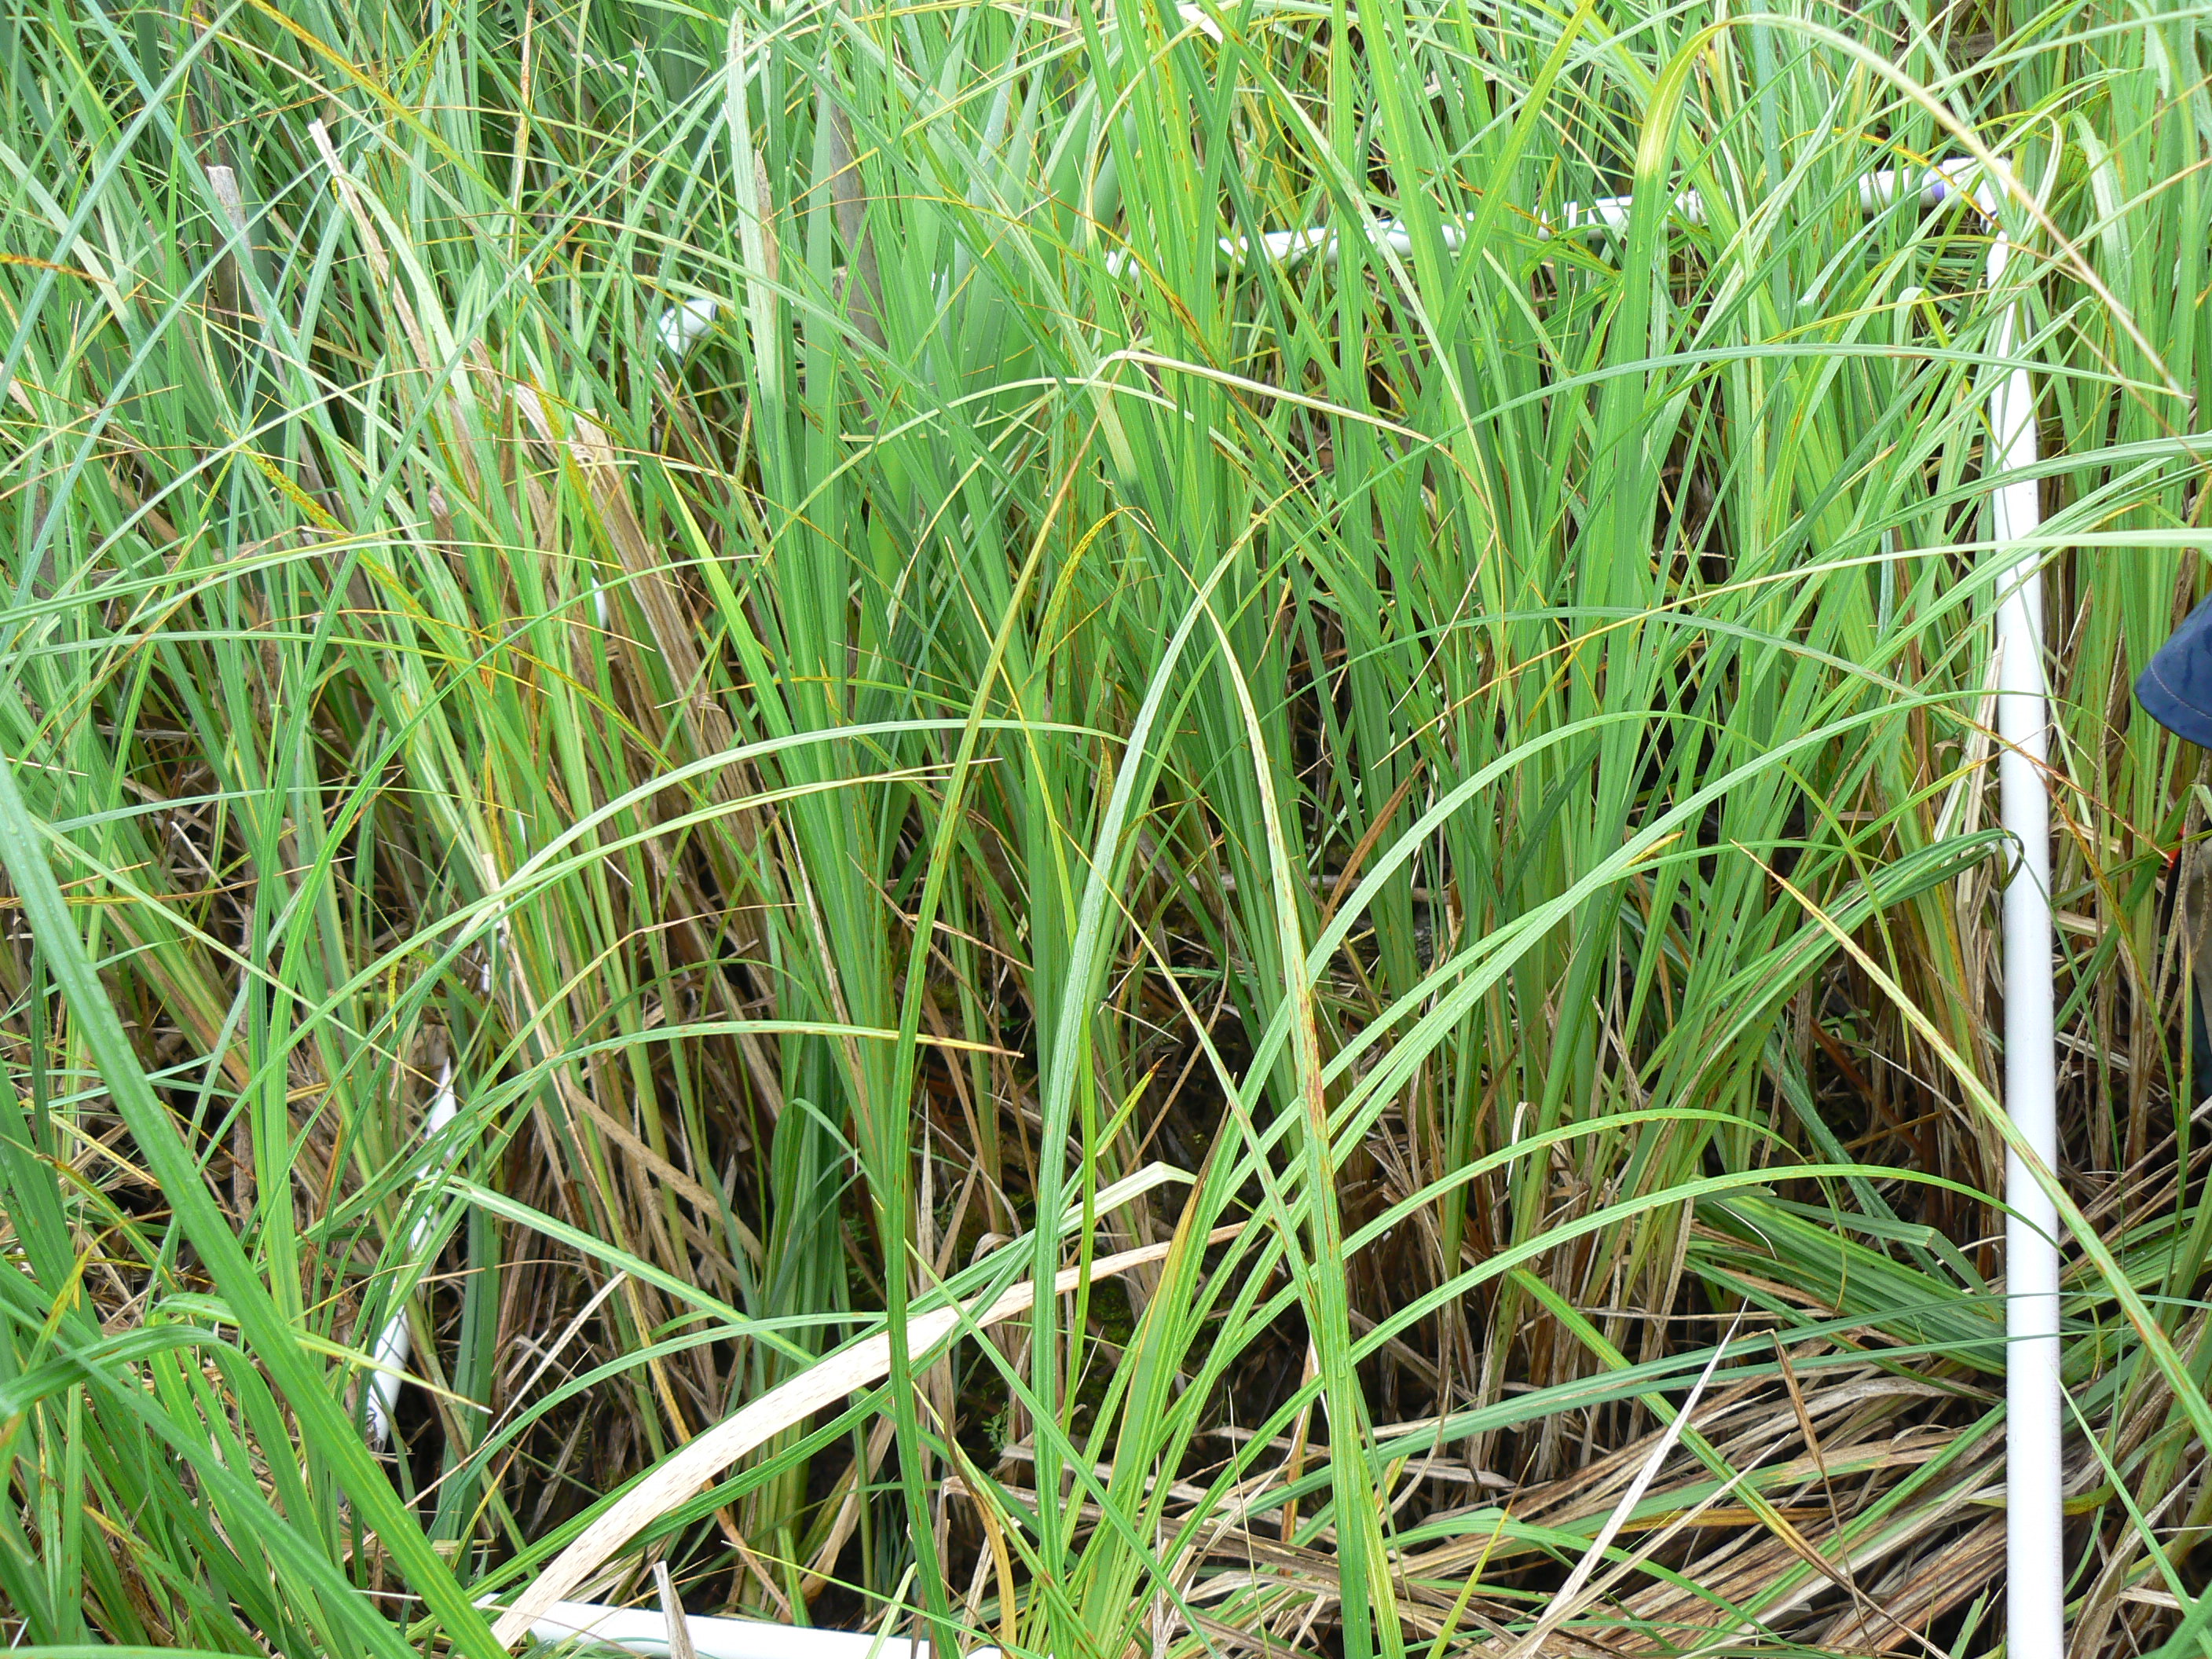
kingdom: Plantae
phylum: Tracheophyta
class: Magnoliopsida
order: Ericales
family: Balsaminaceae
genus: Impatiens
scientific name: Impatiens capensis
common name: Orange balsam
